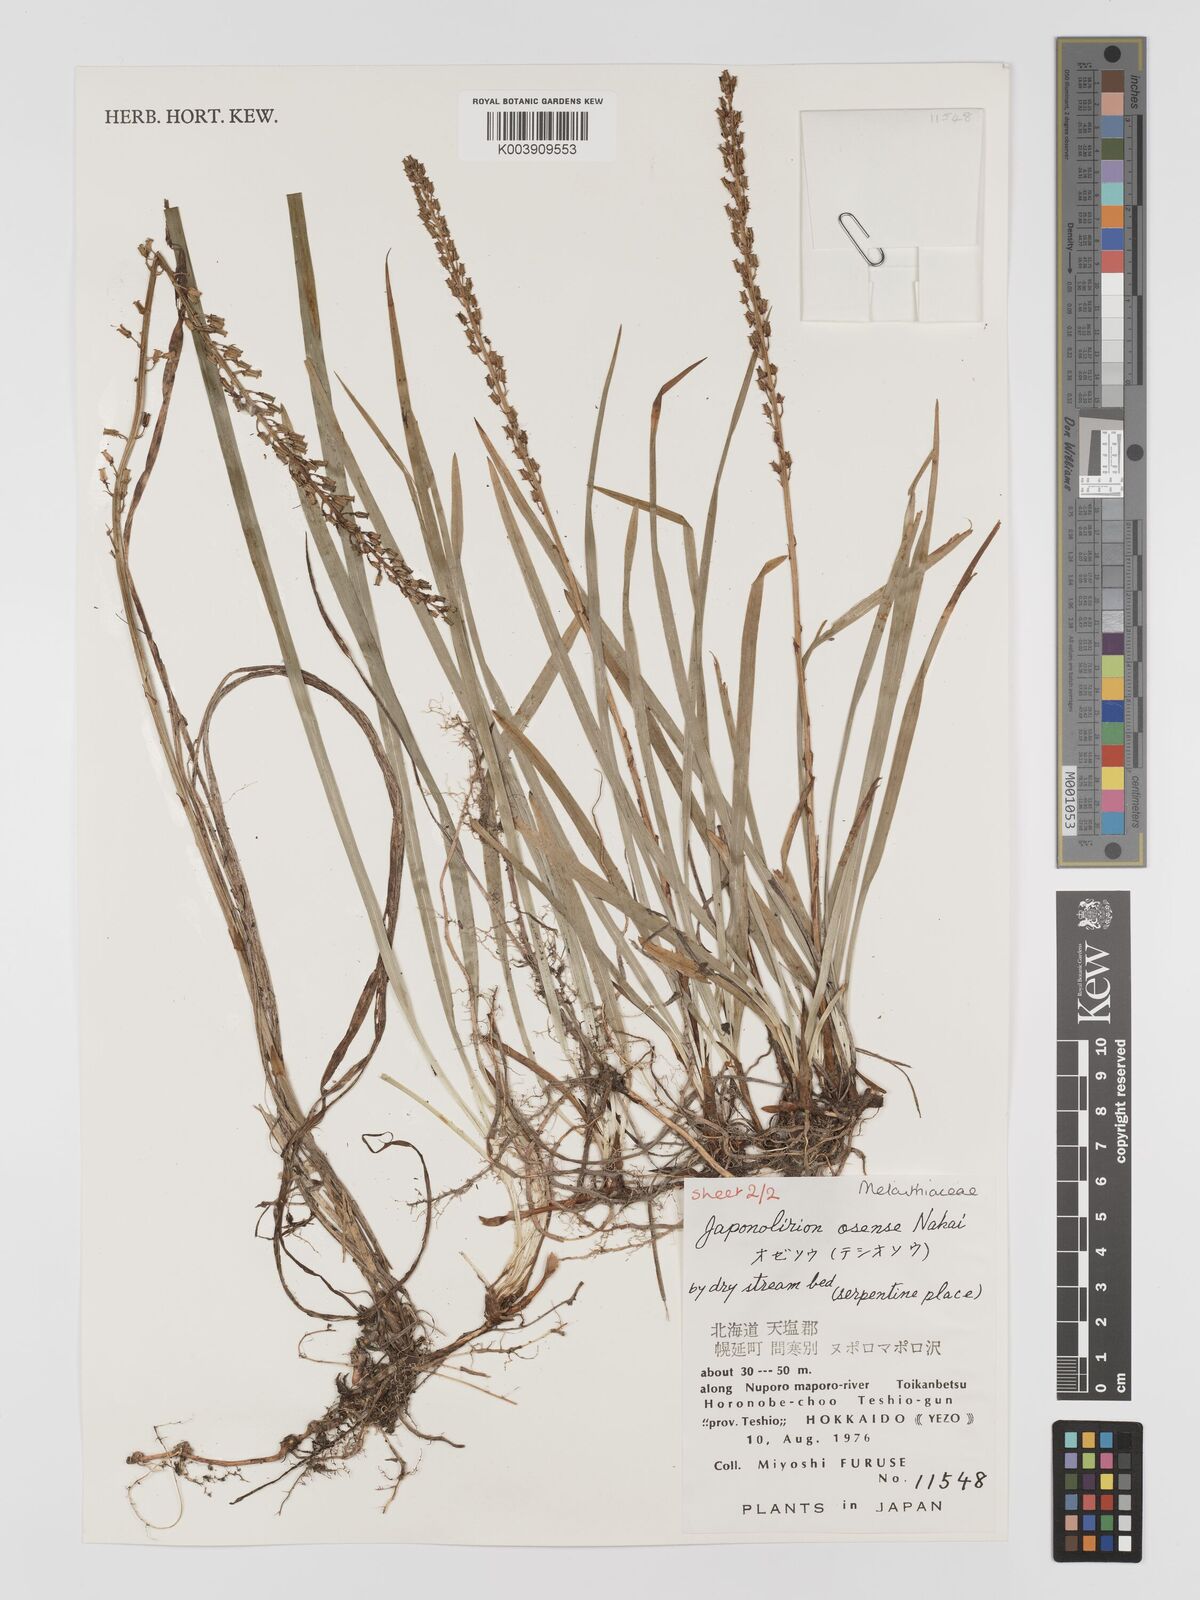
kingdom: Plantae
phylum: Tracheophyta
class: Liliopsida
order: Petrosaviales
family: Petrosaviaceae
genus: Japonolirion
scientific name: Japonolirion osense
